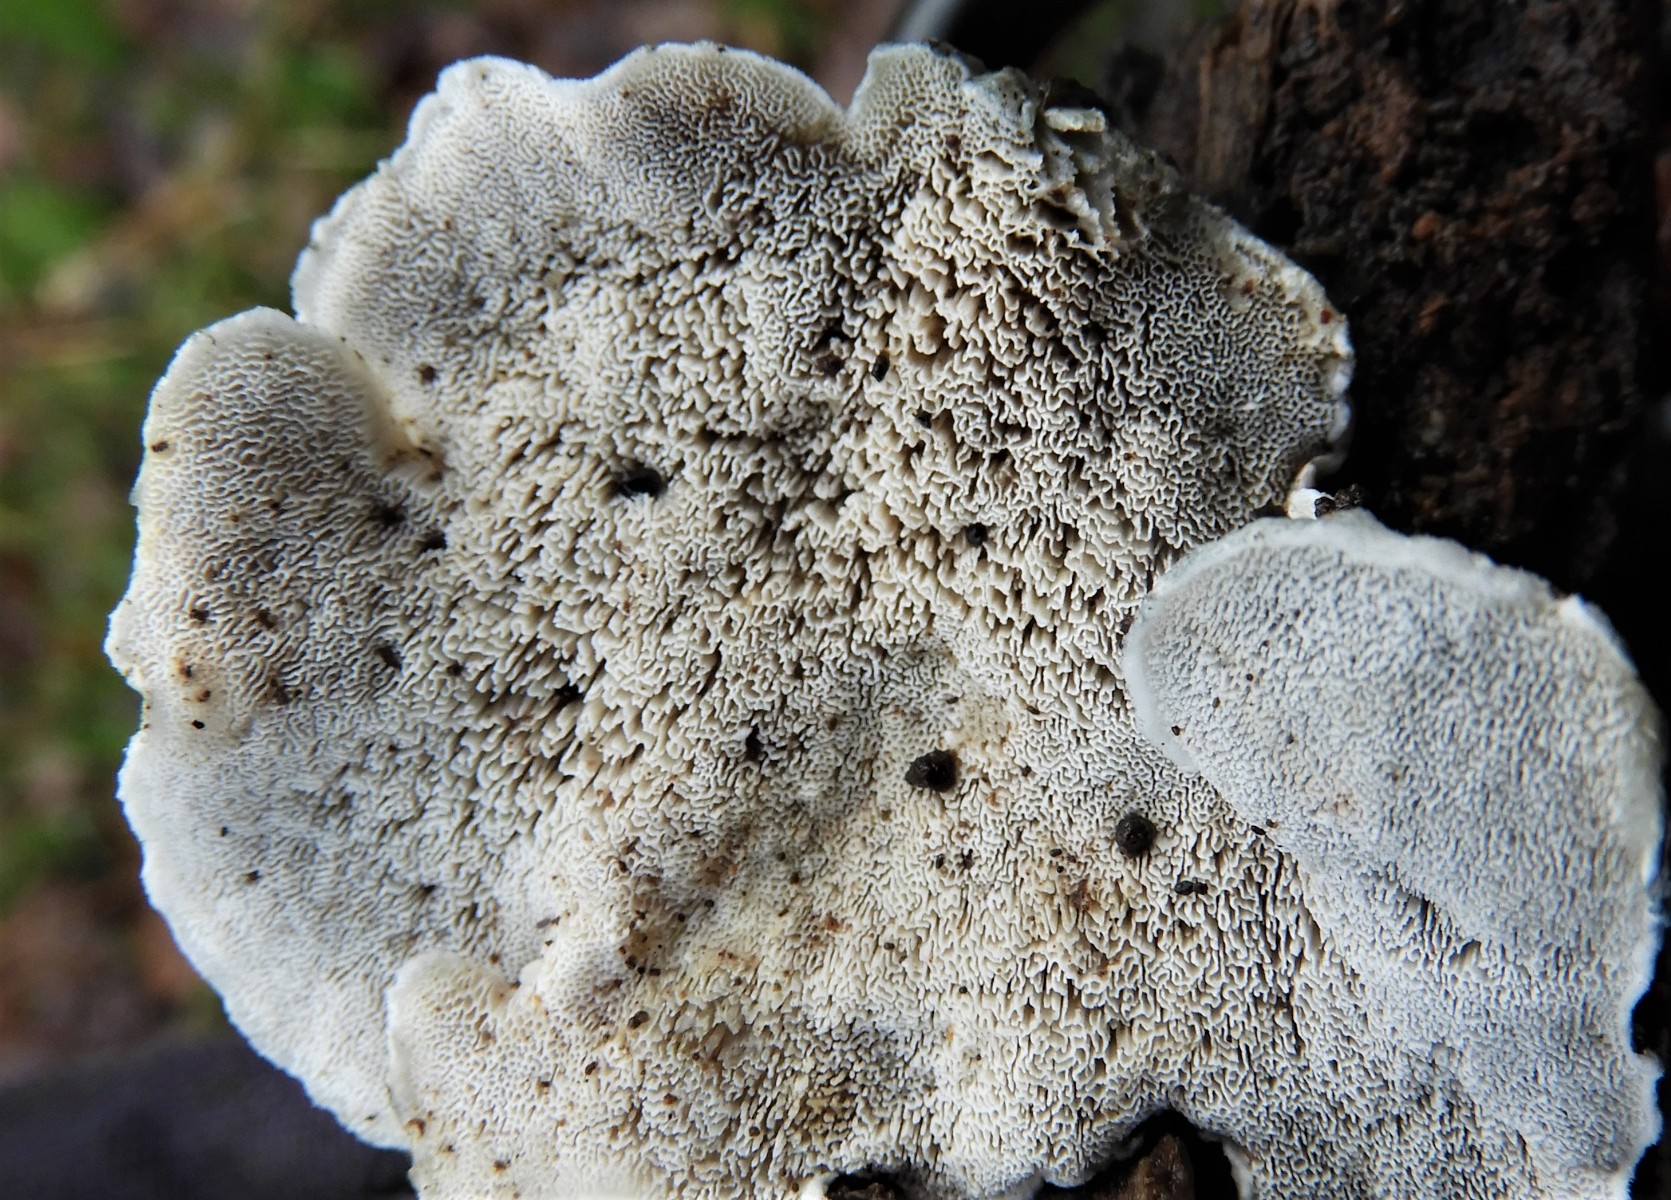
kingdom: Fungi
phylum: Basidiomycota
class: Agaricomycetes
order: Polyporales
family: Polyporaceae
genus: Cyanosporus
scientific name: Cyanosporus alni
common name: blegblå kødporesvamp
